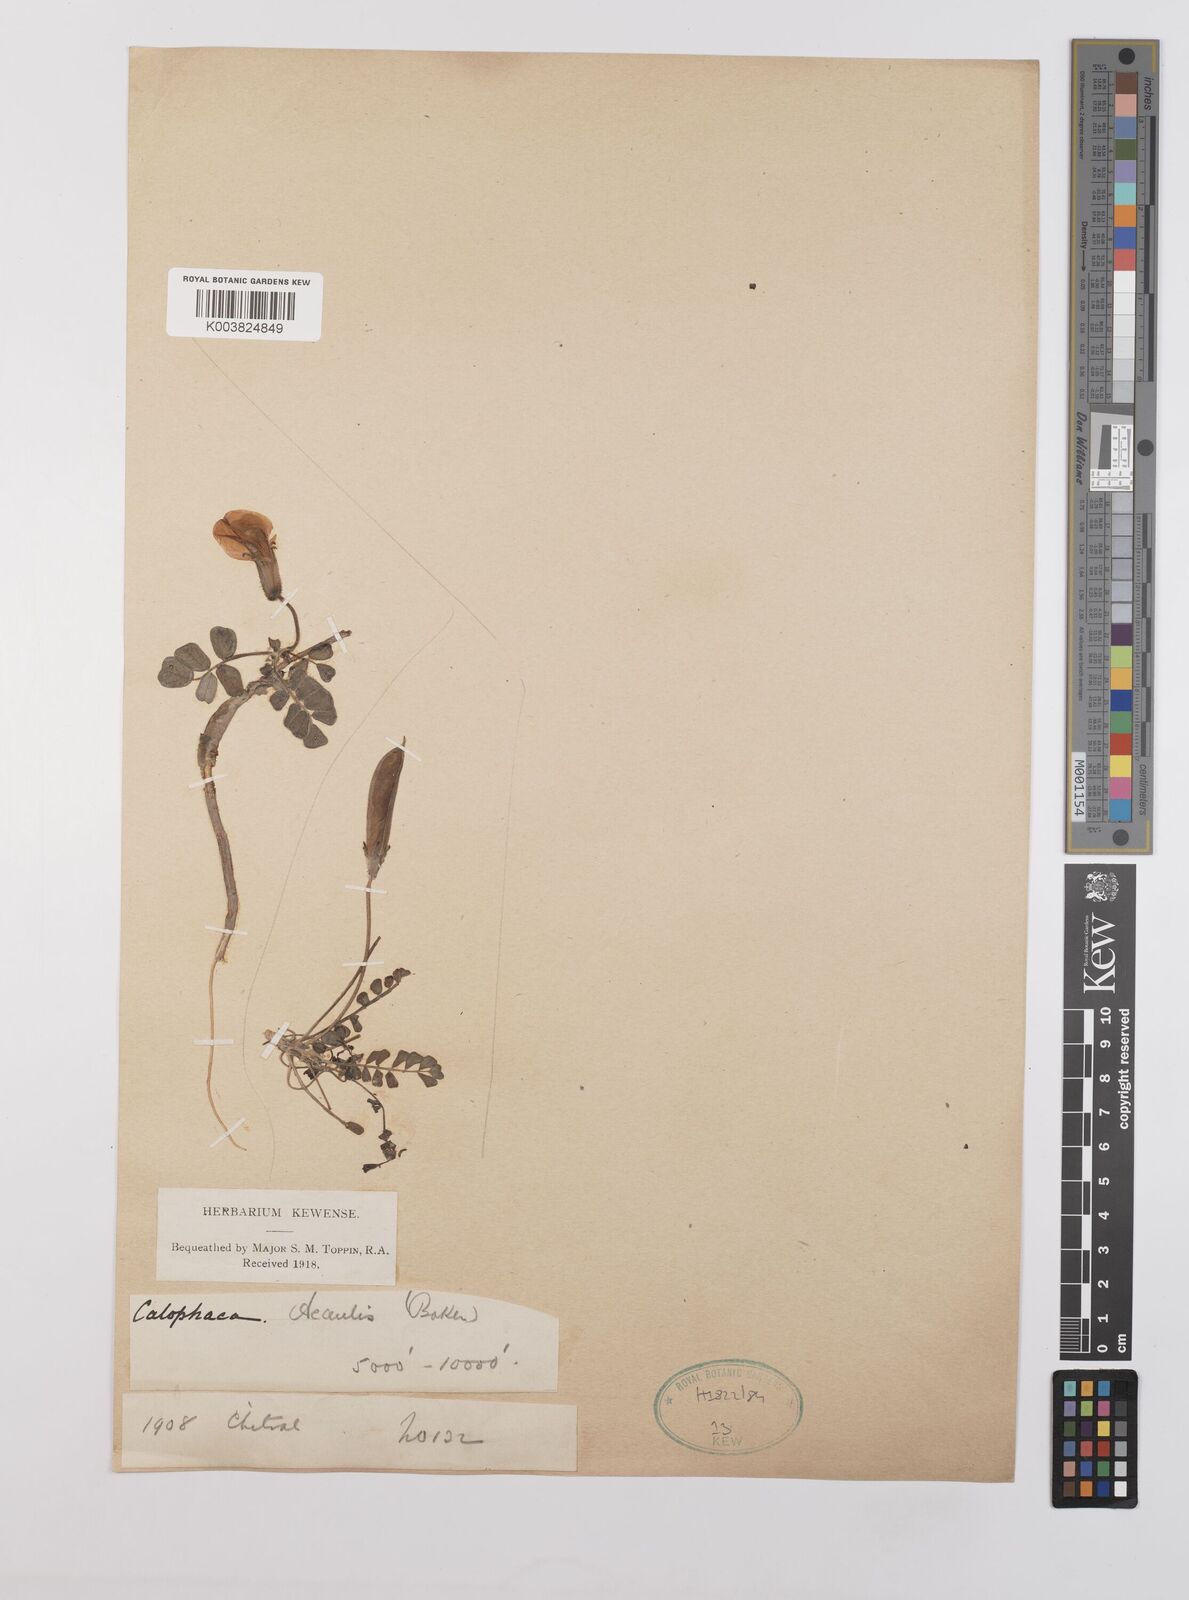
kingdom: Plantae
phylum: Tracheophyta
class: Magnoliopsida
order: Fabales
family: Fabaceae
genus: Chesneya
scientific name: Chesneya acaulis
